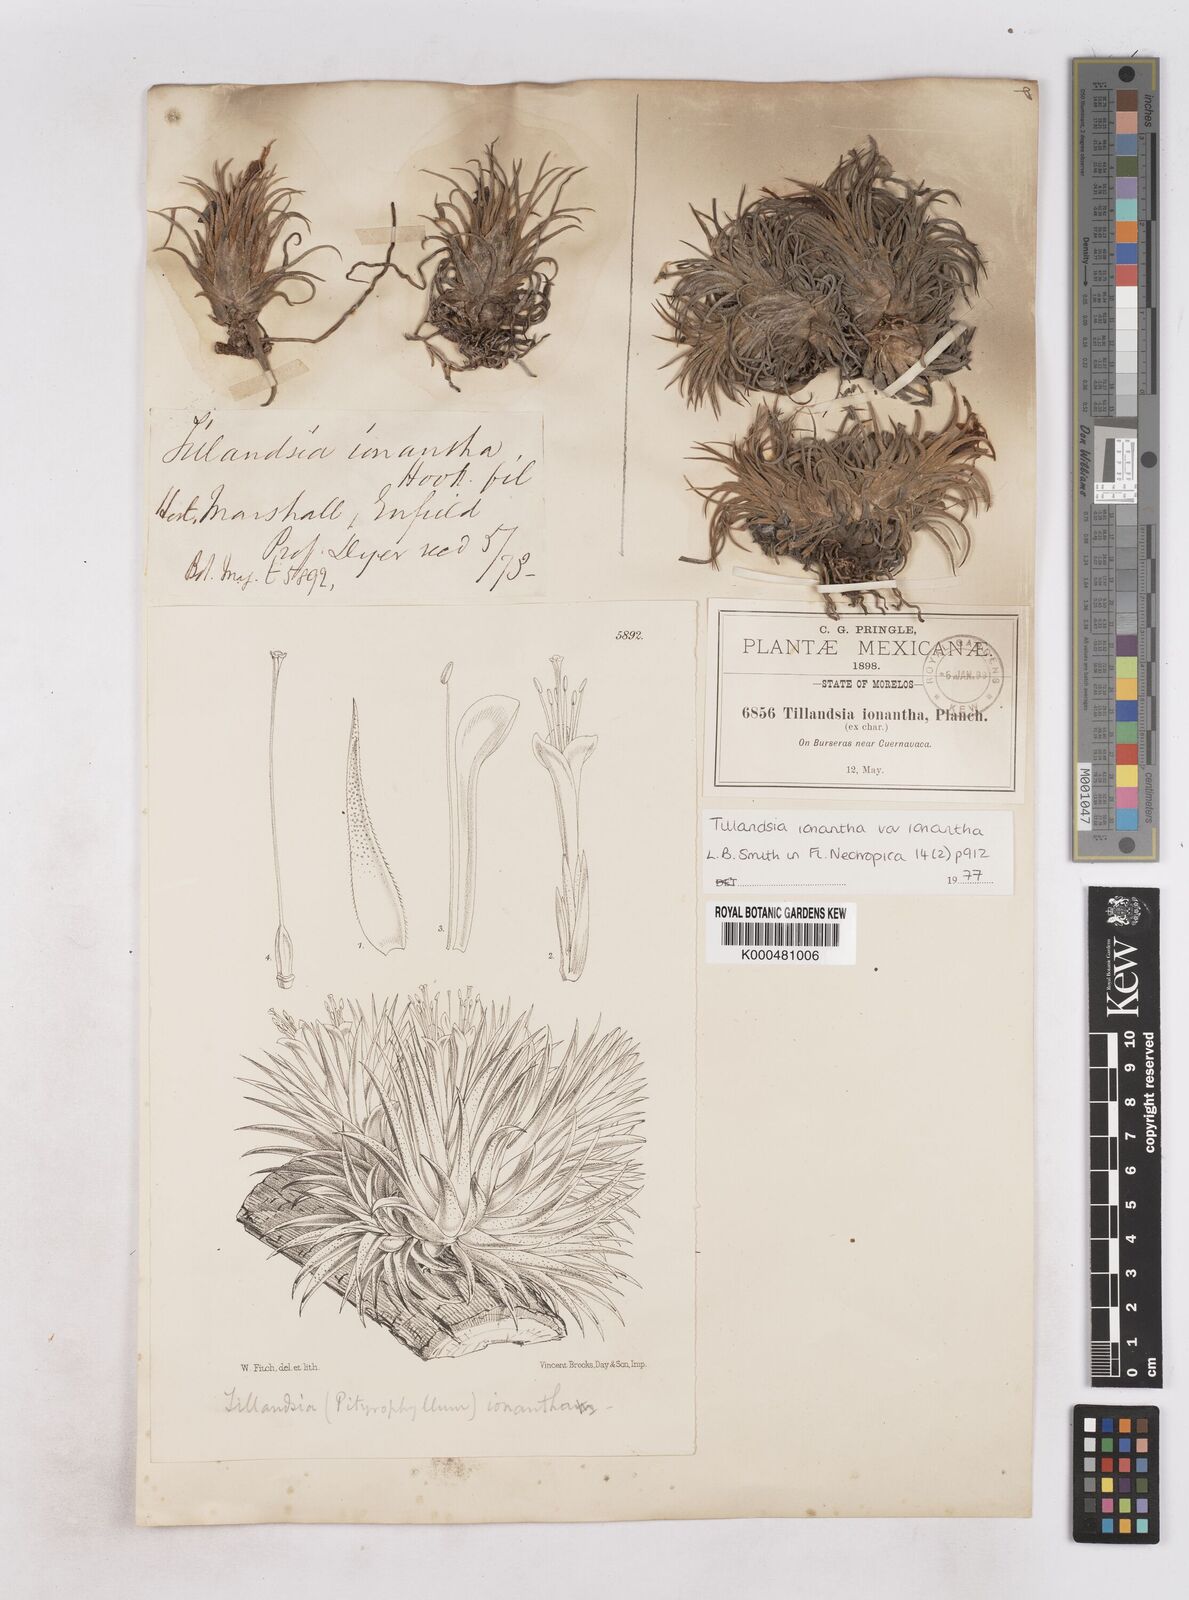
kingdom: Plantae
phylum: Tracheophyta
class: Liliopsida
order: Poales
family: Bromeliaceae
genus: Tillandsia
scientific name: Tillandsia ionantha
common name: Sky plant
